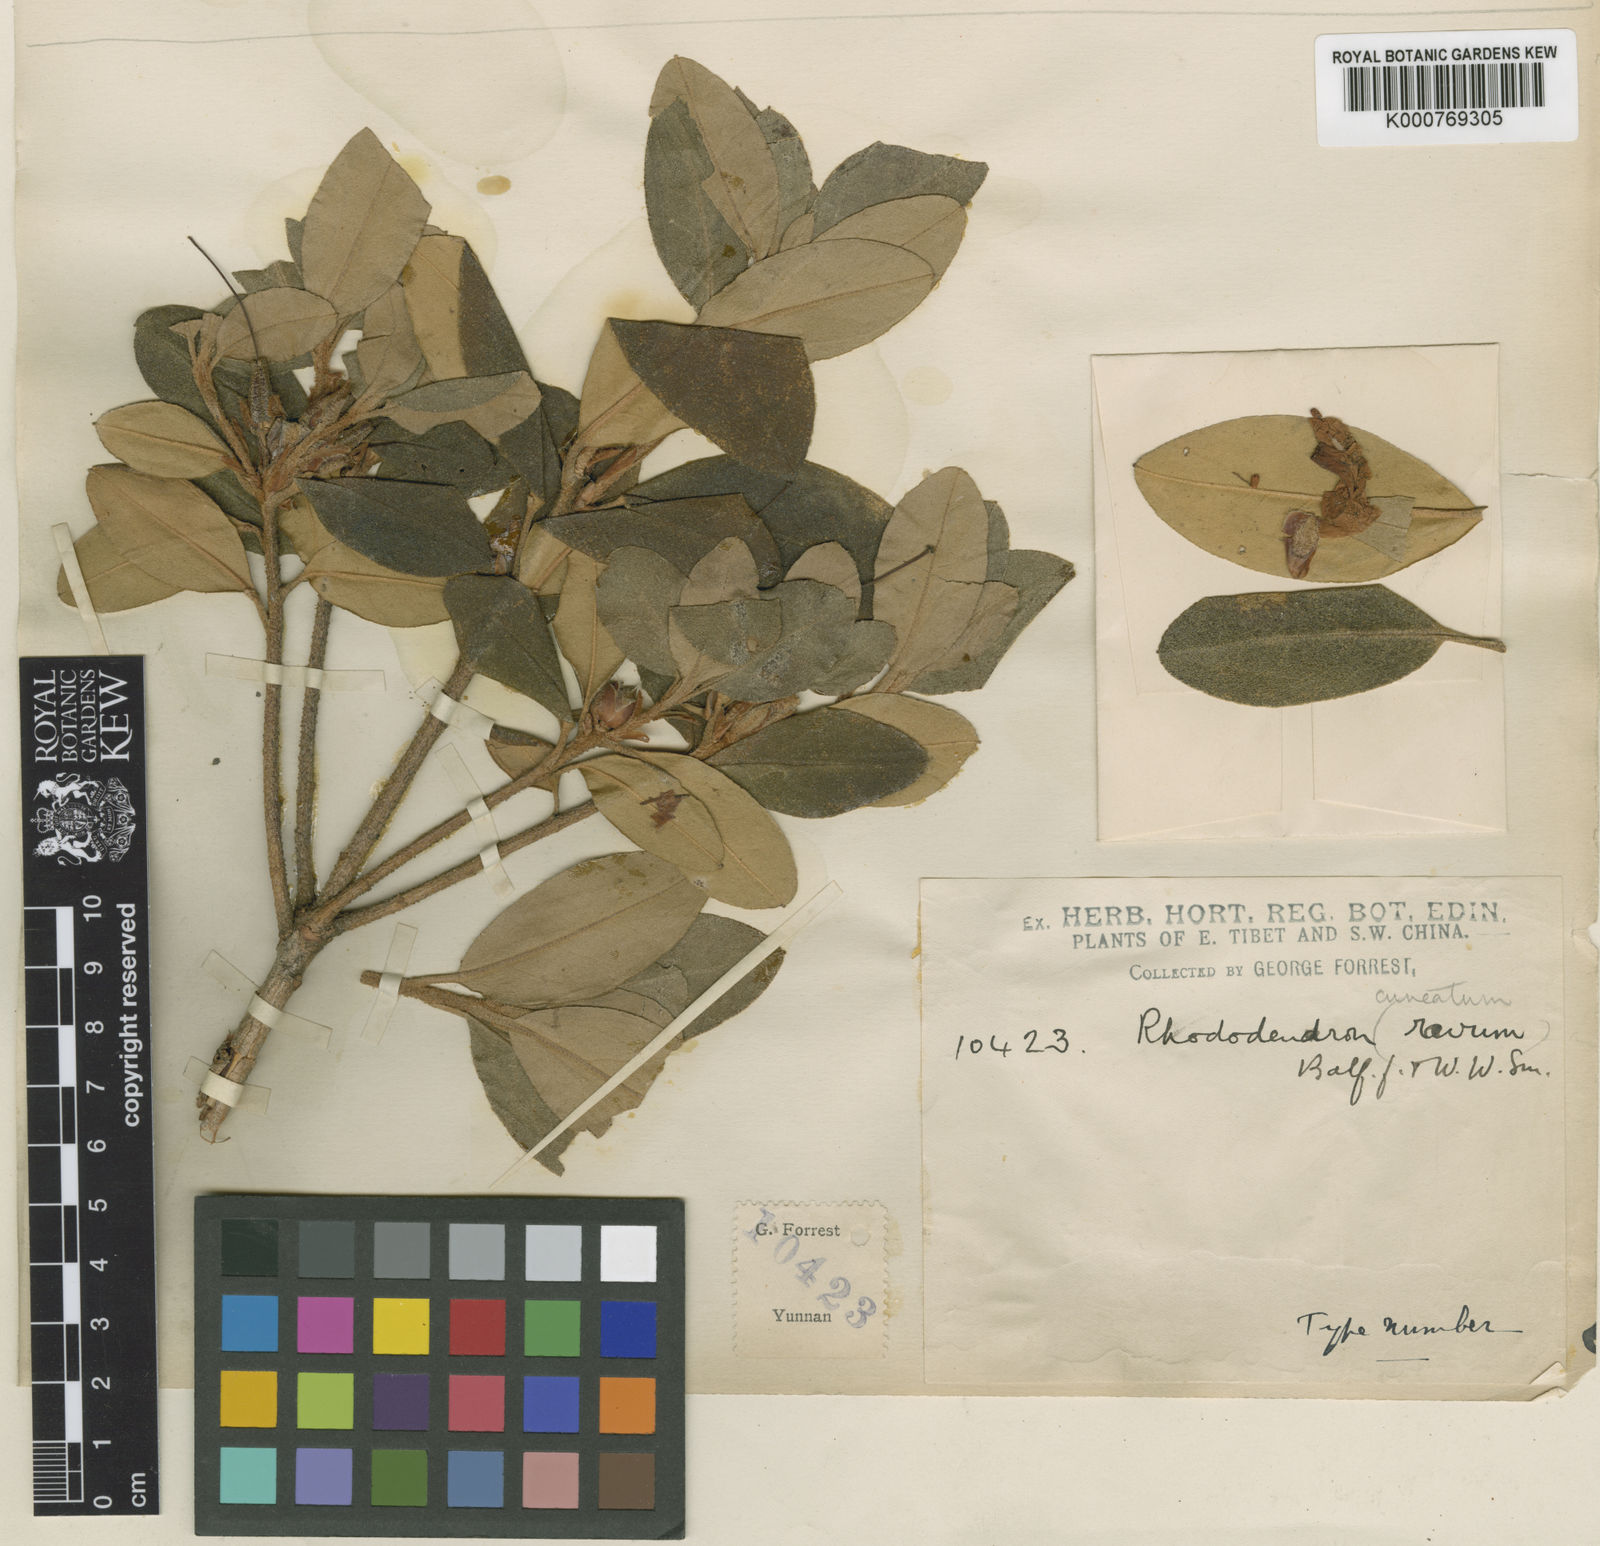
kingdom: Plantae
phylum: Tracheophyta
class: Magnoliopsida
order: Ericales
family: Ericaceae
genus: Rhododendron
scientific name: Rhododendron cuneatum
